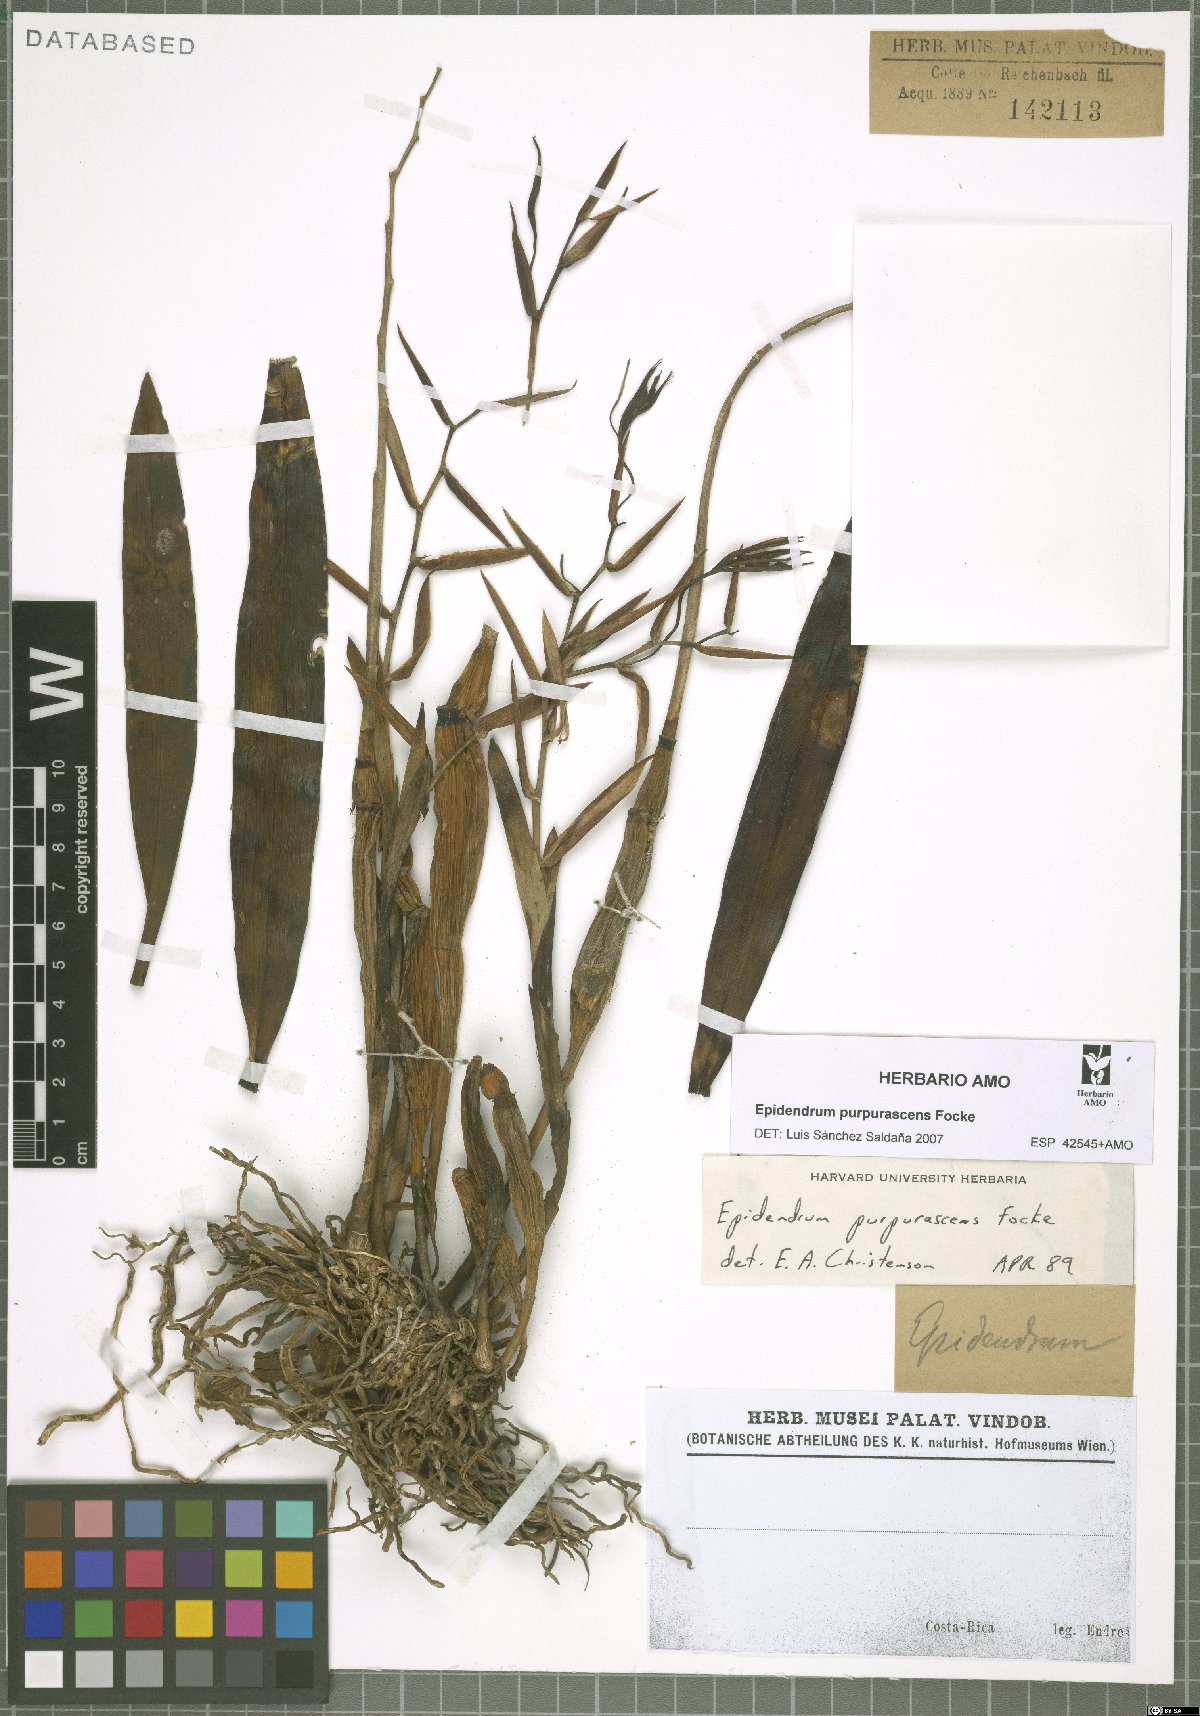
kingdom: Plantae
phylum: Tracheophyta
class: Liliopsida
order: Asparagales
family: Orchidaceae
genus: Epidendrum
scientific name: Epidendrum purpurascens
